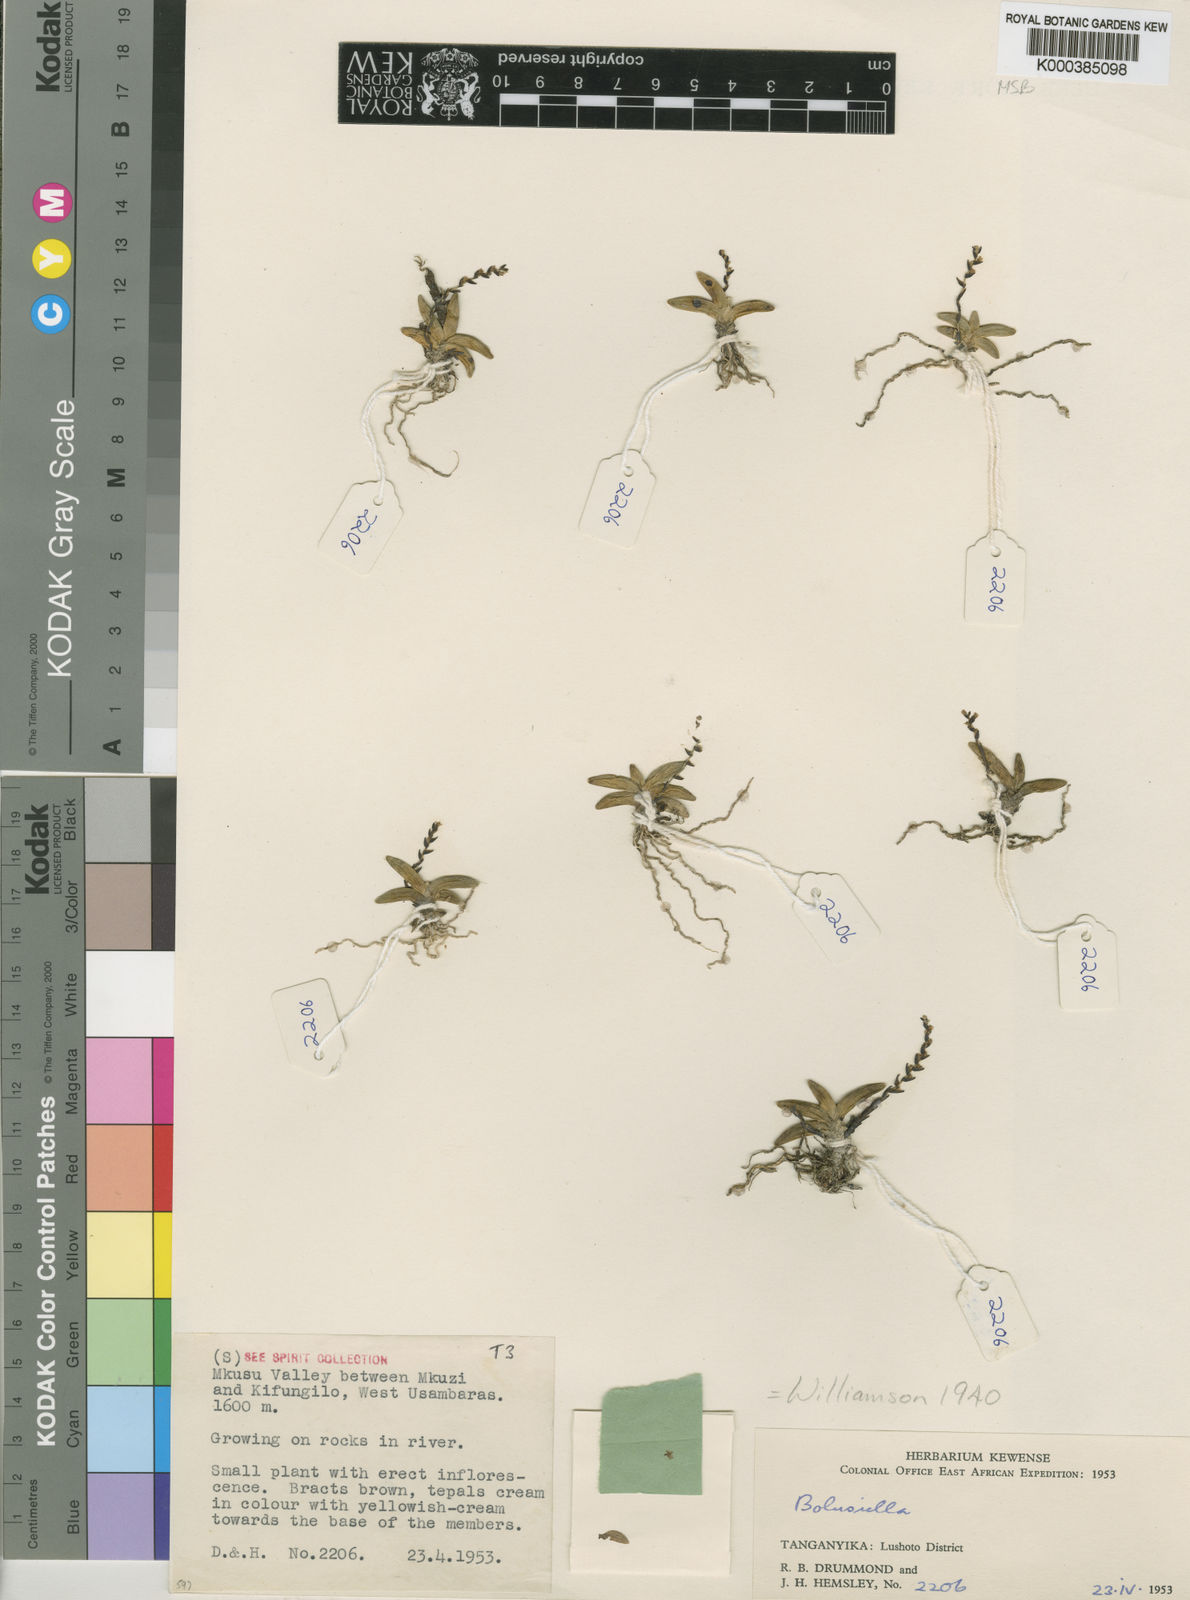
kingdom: Plantae
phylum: Tracheophyta
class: Liliopsida
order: Asparagales
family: Orchidaceae
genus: Bolusiella
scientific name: Bolusiella iridifolia
